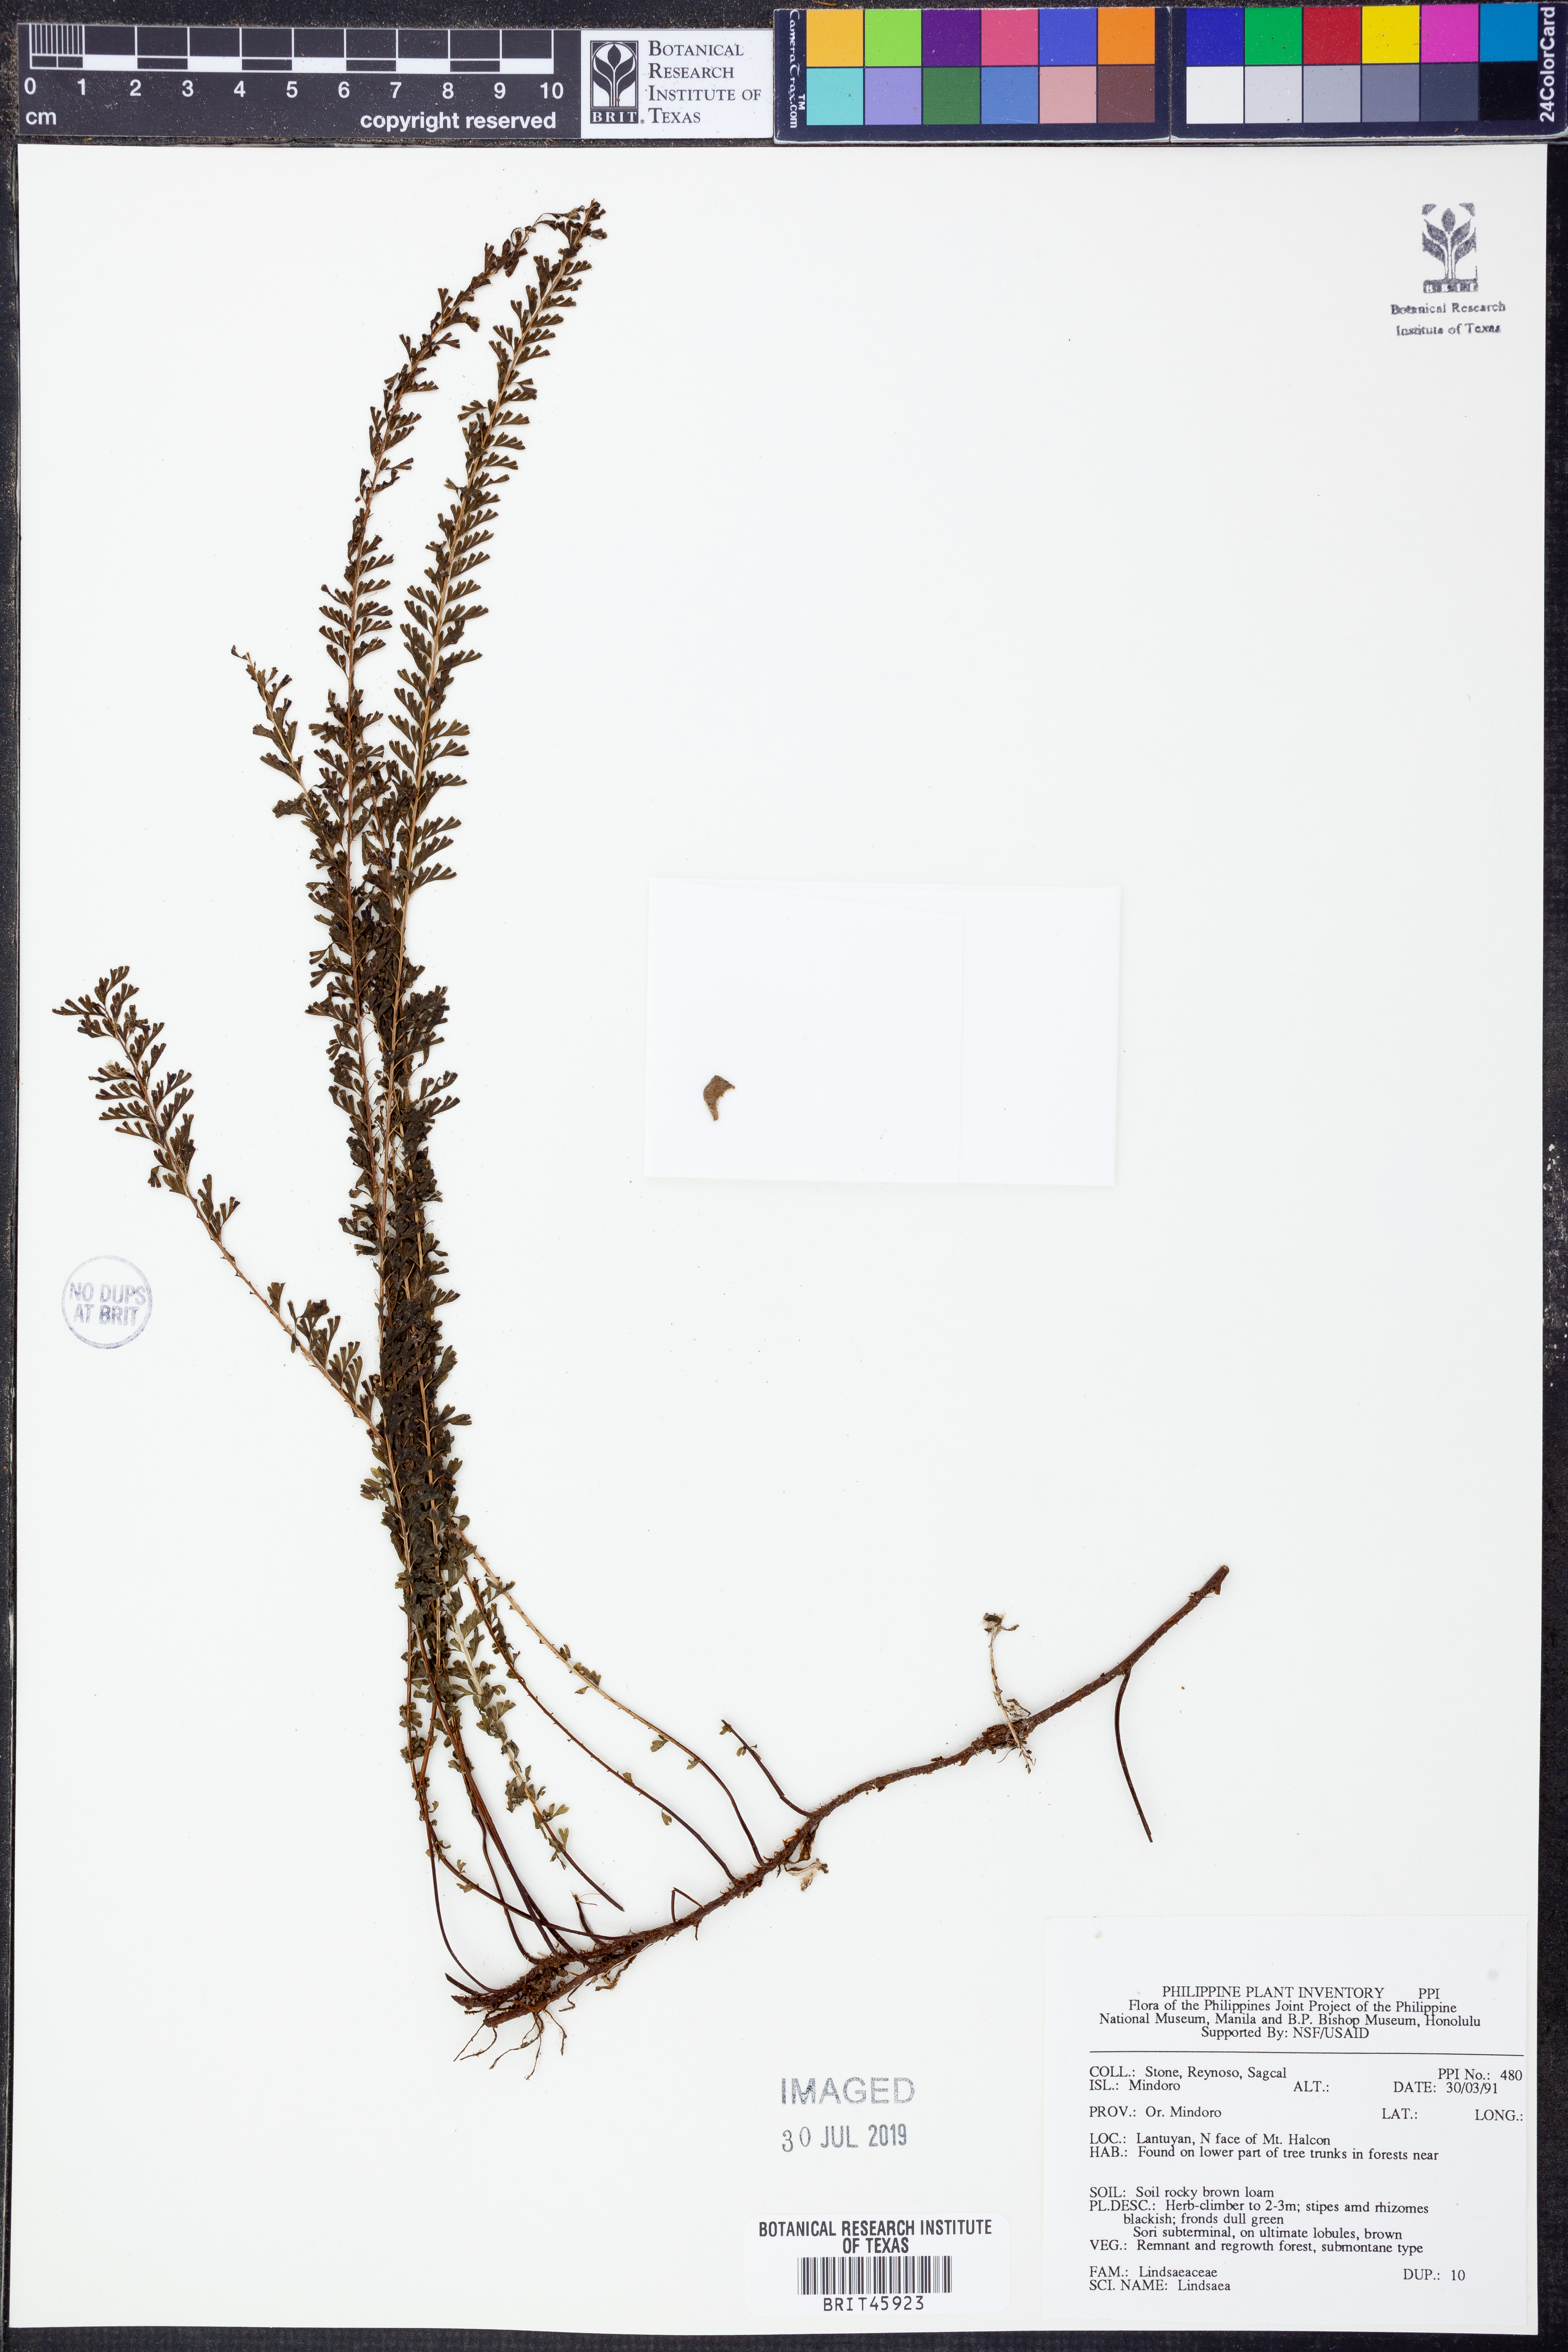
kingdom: Plantae
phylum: Tracheophyta
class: Polypodiopsida
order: Polypodiales
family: Lindsaeaceae
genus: Lindsaea
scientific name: Lindsaea
